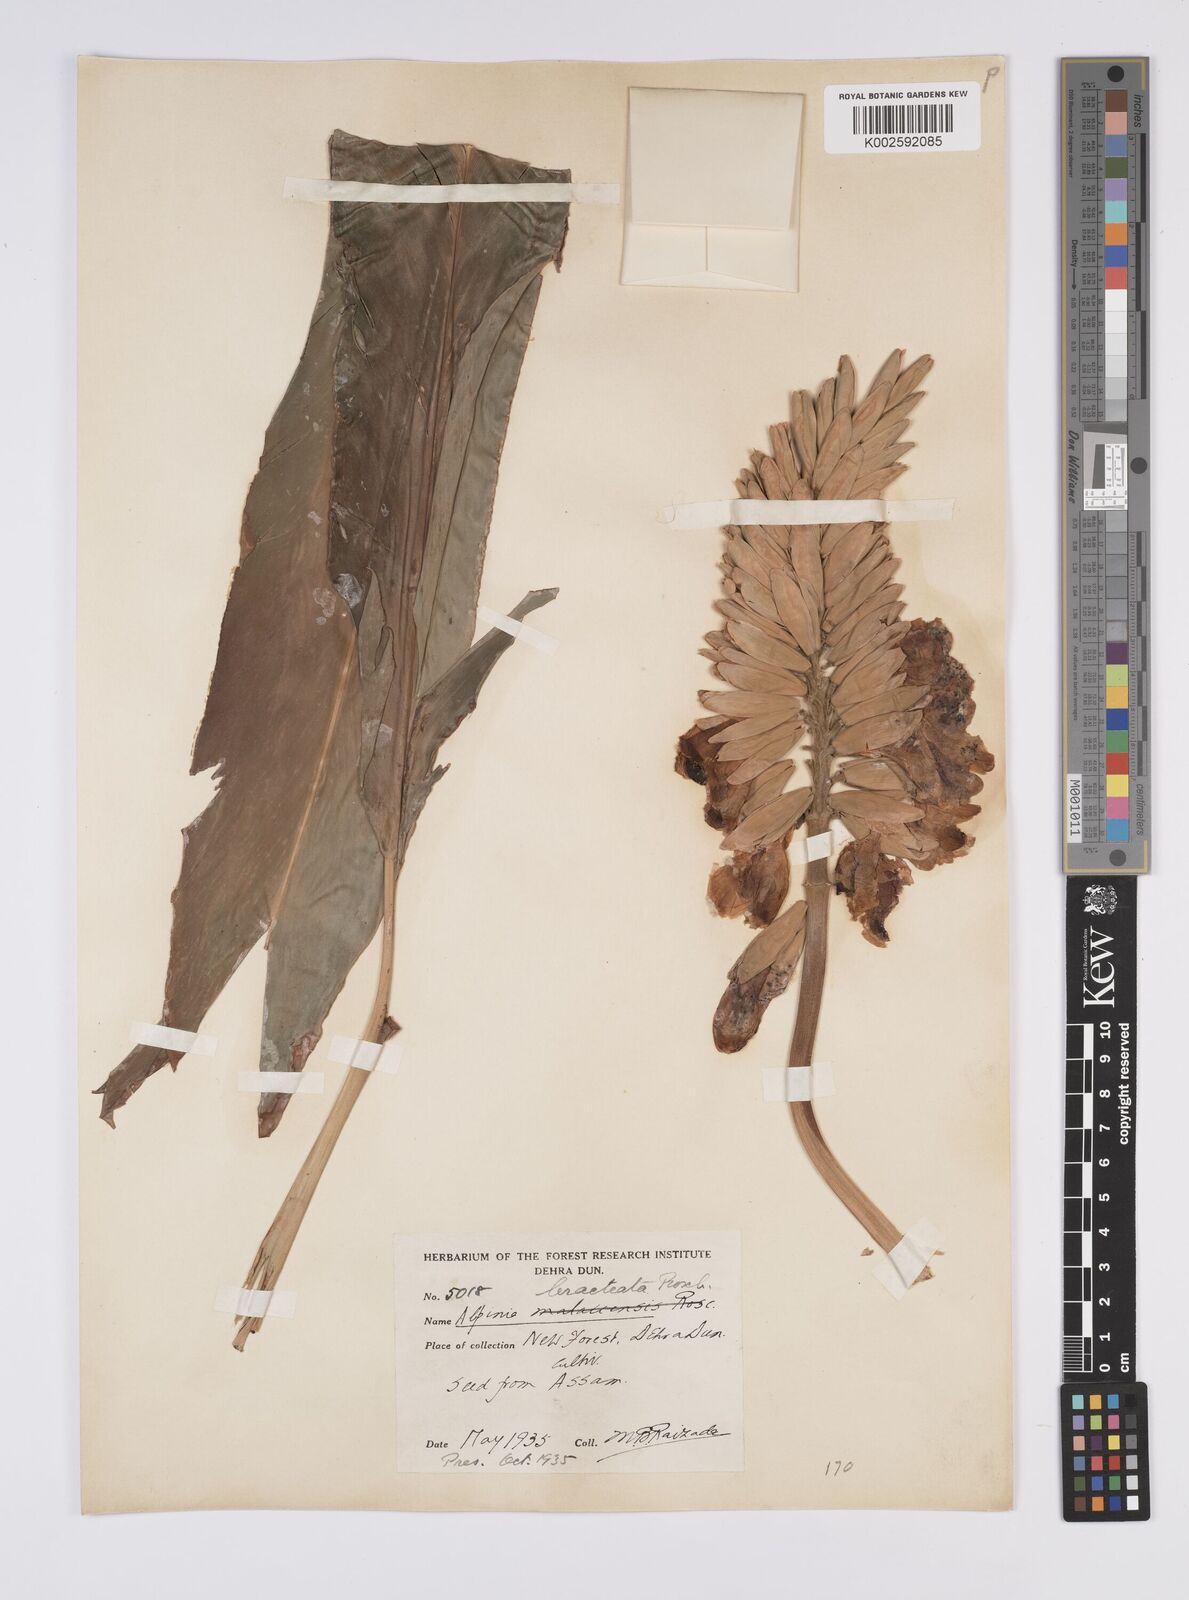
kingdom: Plantae
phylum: Tracheophyta
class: Liliopsida
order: Zingiberales
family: Zingiberaceae
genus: Alpinia
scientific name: Alpinia roxburghii
